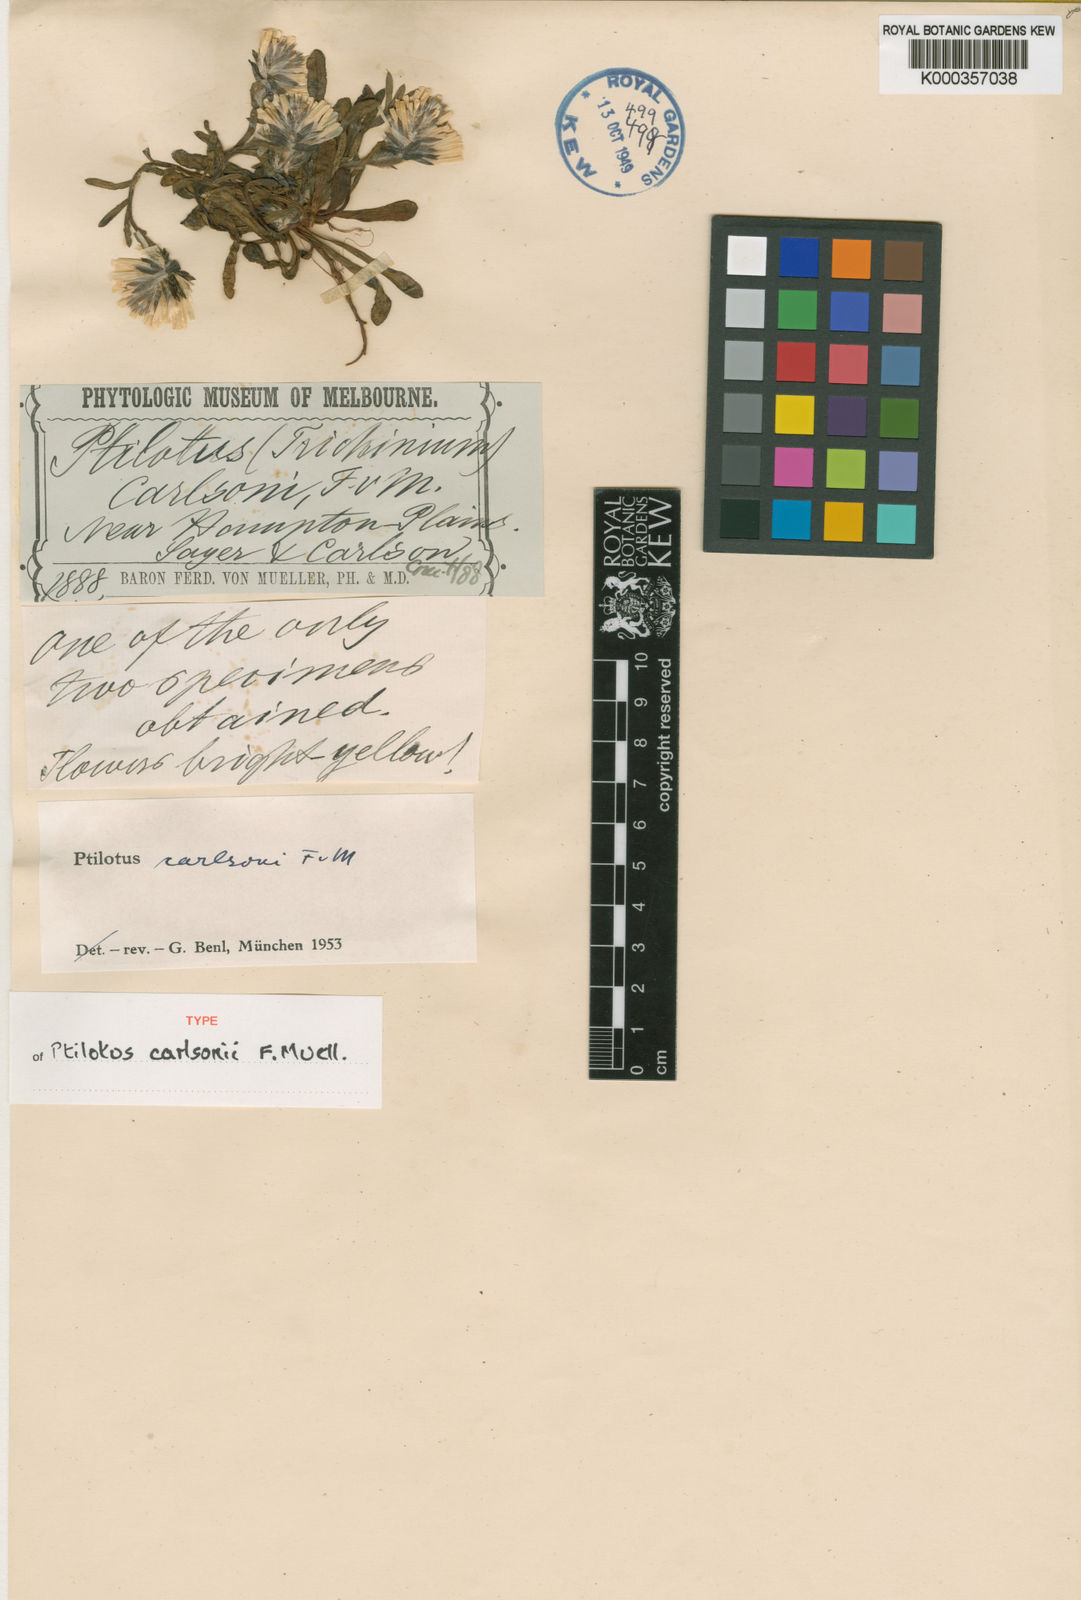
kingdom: Plantae
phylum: Tracheophyta
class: Magnoliopsida
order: Caryophyllales
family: Amaranthaceae
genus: Ptilotus
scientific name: Ptilotus carlsonii
